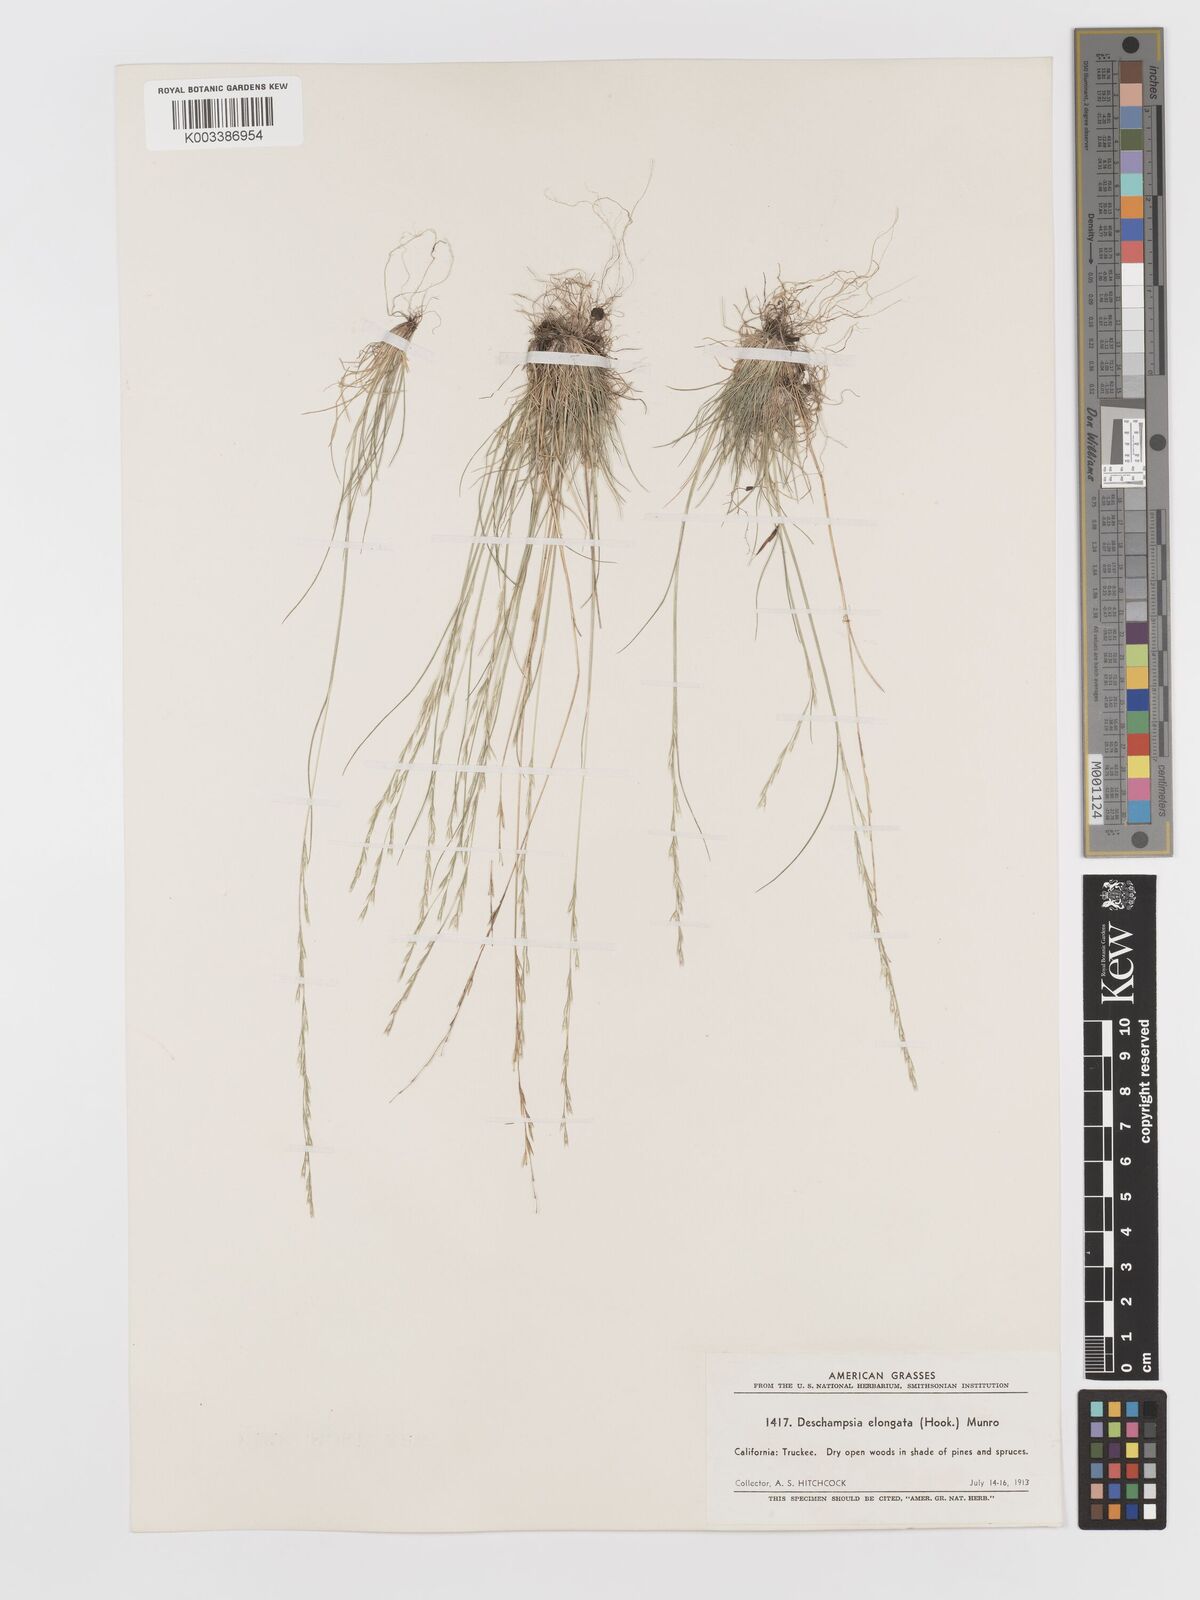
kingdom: Plantae
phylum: Tracheophyta
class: Liliopsida
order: Poales
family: Poaceae
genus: Deschampsia
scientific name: Deschampsia elongata
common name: Slender hairgrass
